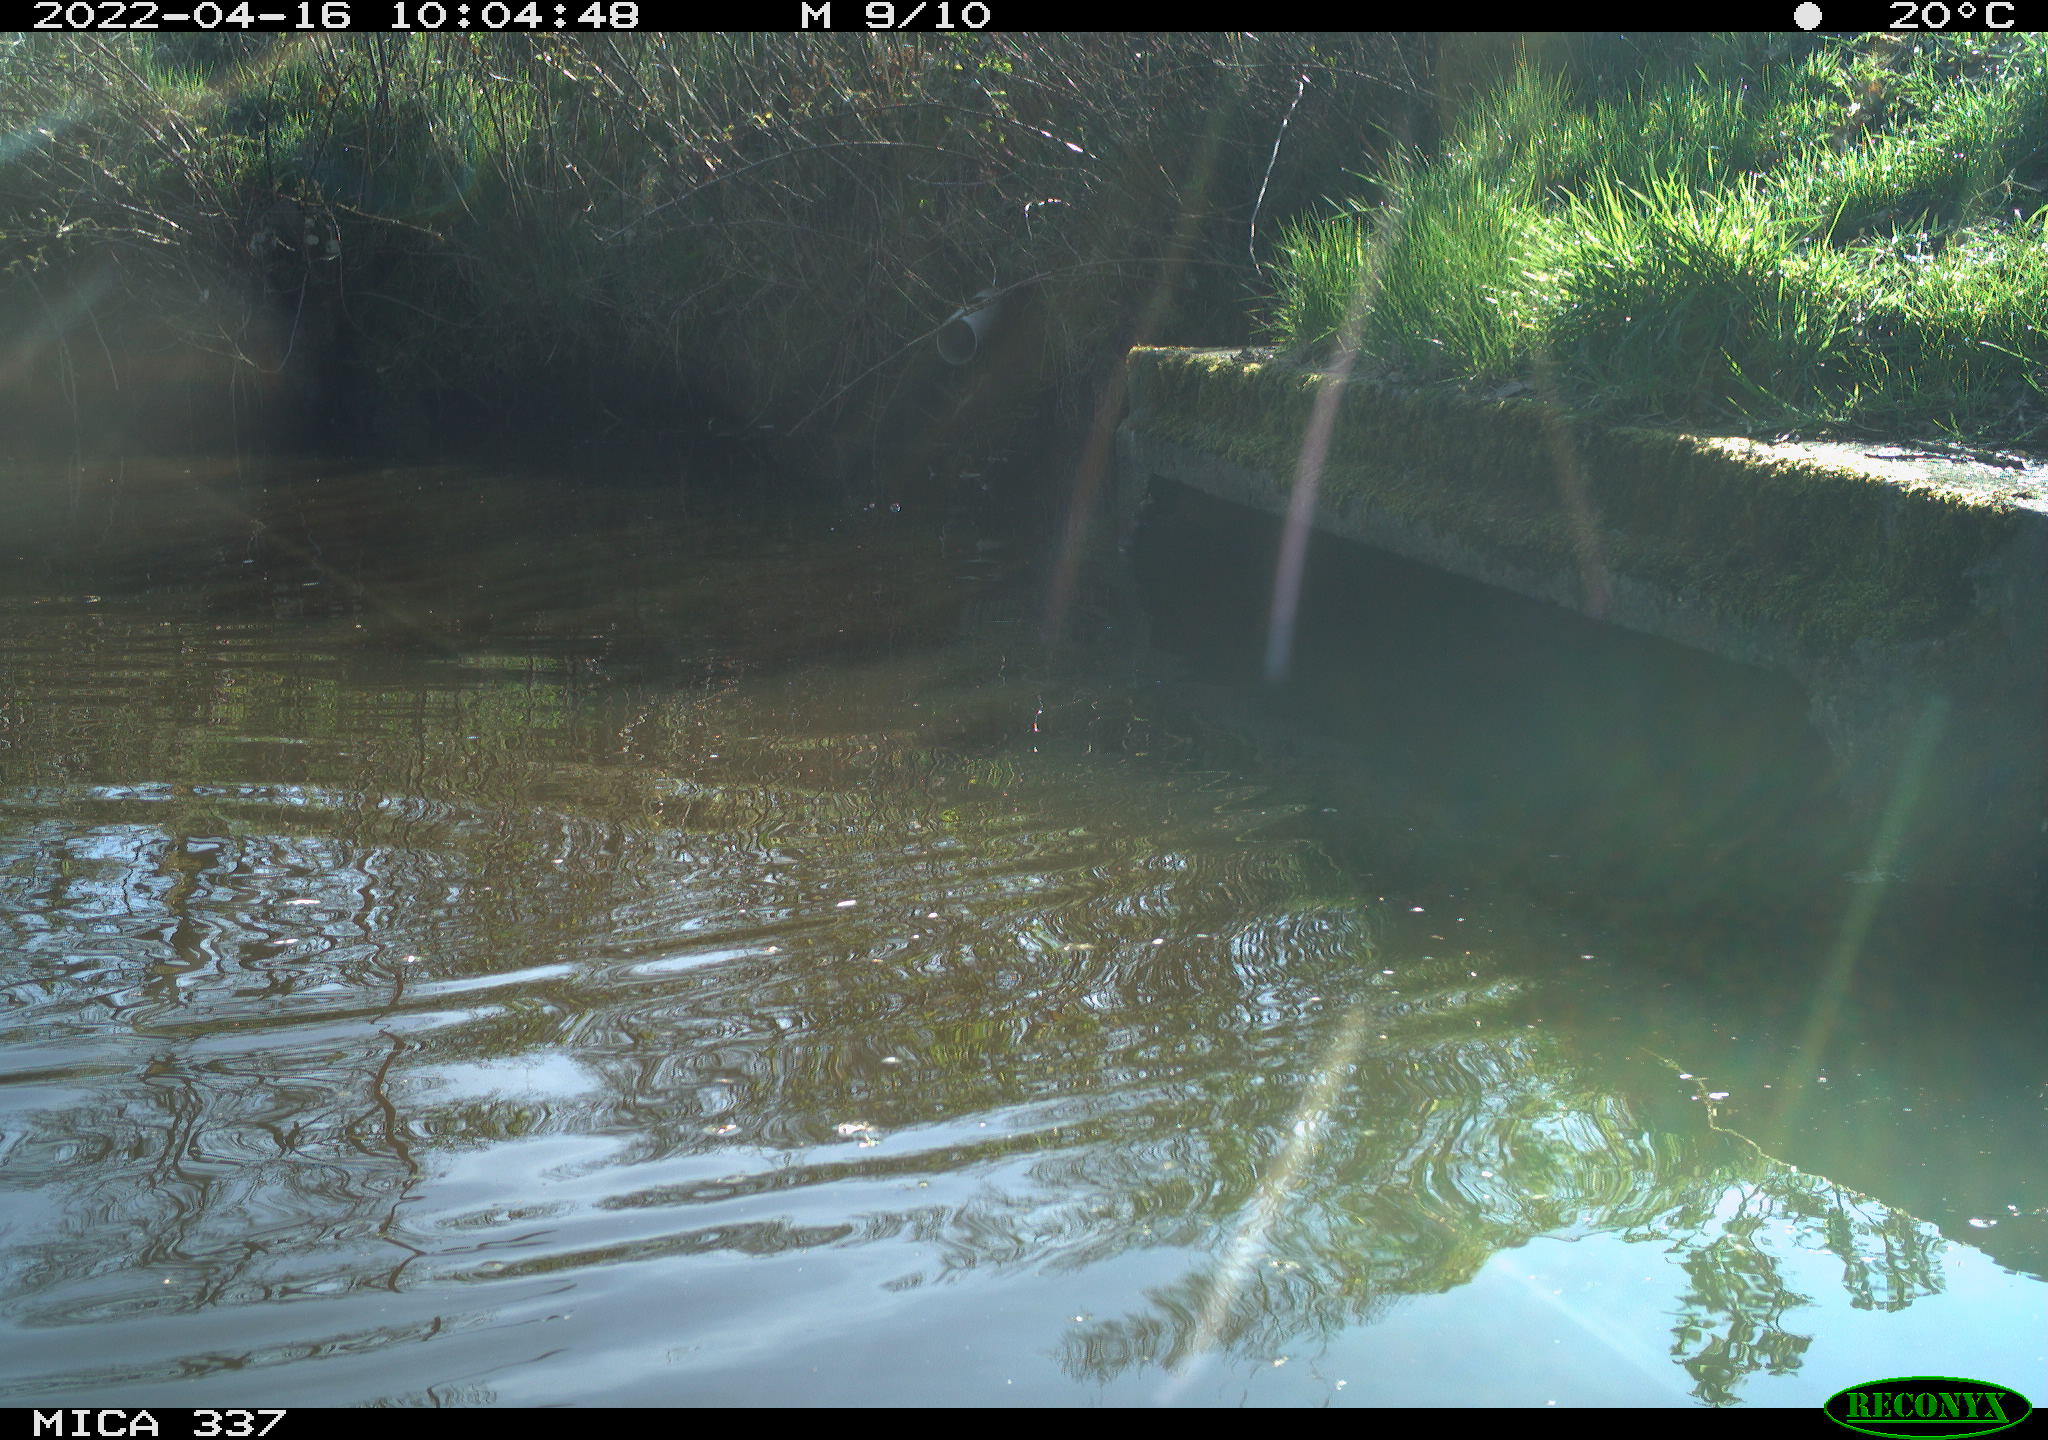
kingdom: Animalia
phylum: Chordata
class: Aves
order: Anseriformes
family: Anatidae
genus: Anas
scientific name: Anas platyrhynchos
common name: Mallard
